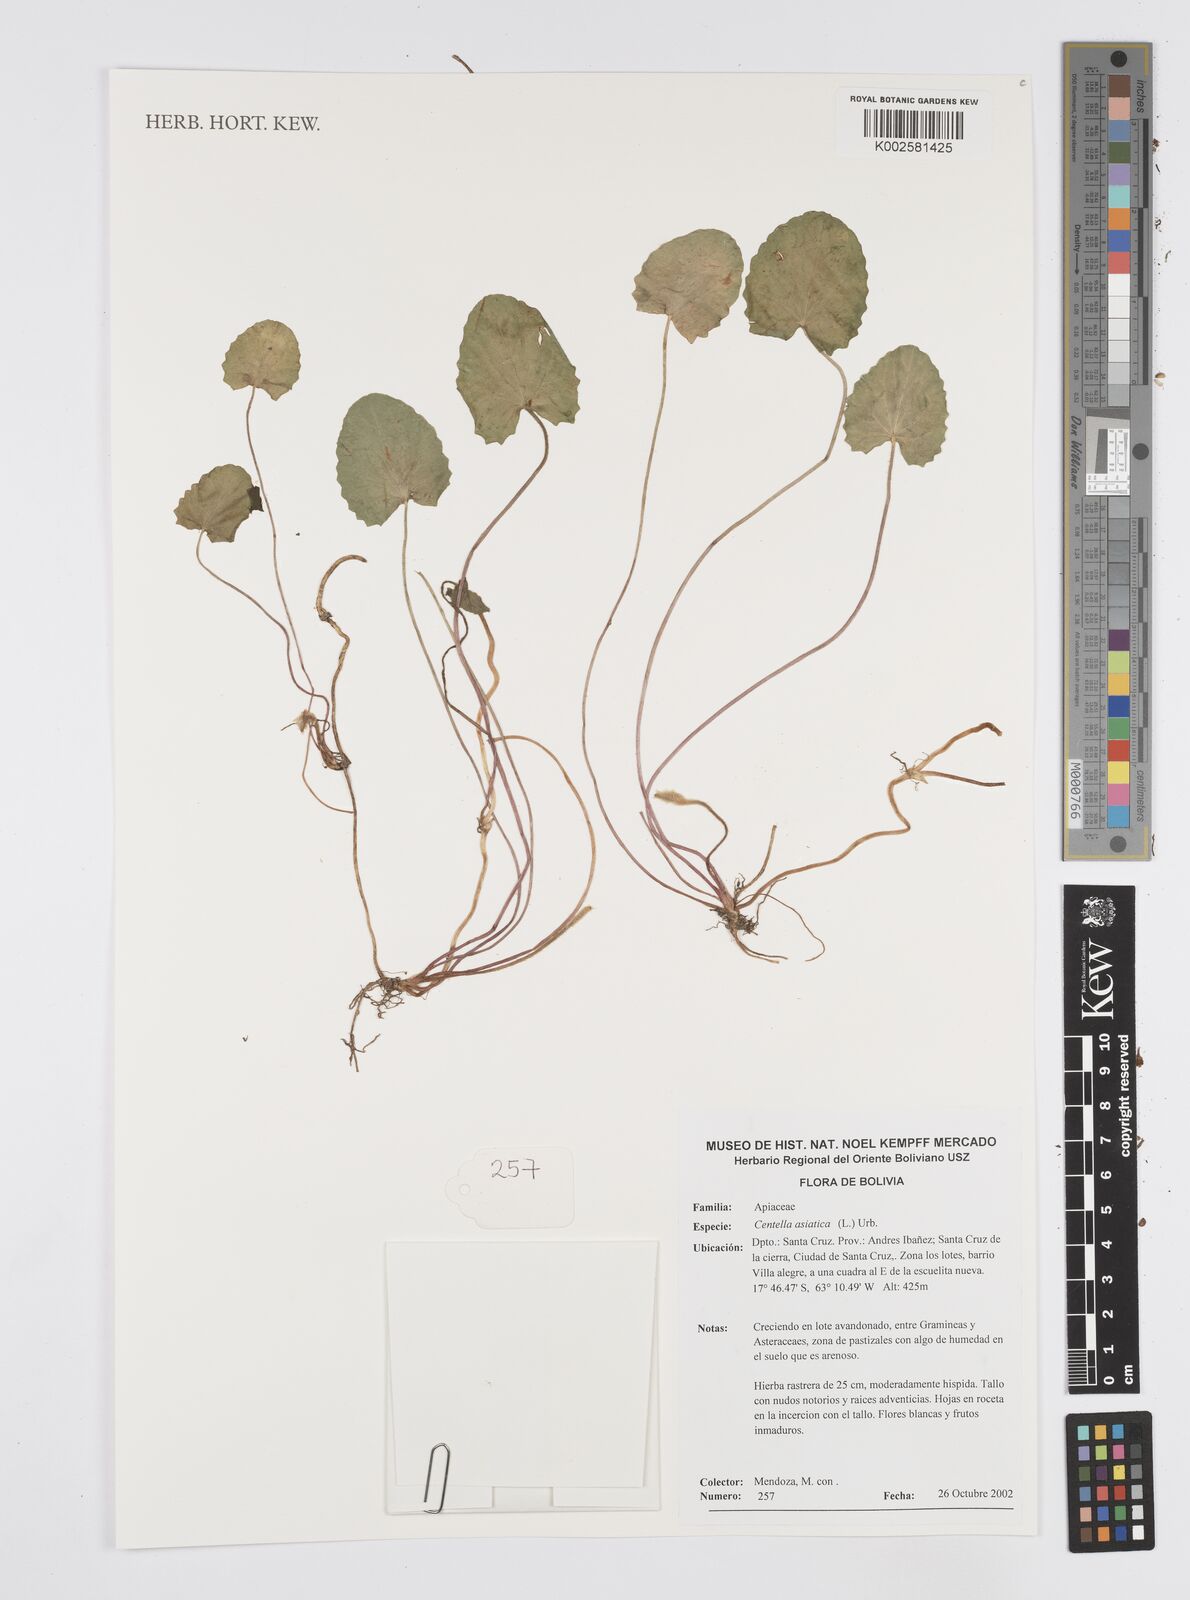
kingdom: Plantae
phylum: Tracheophyta
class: Magnoliopsida
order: Apiales
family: Apiaceae
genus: Centella
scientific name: Centella asiatica
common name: Spadeleaf
